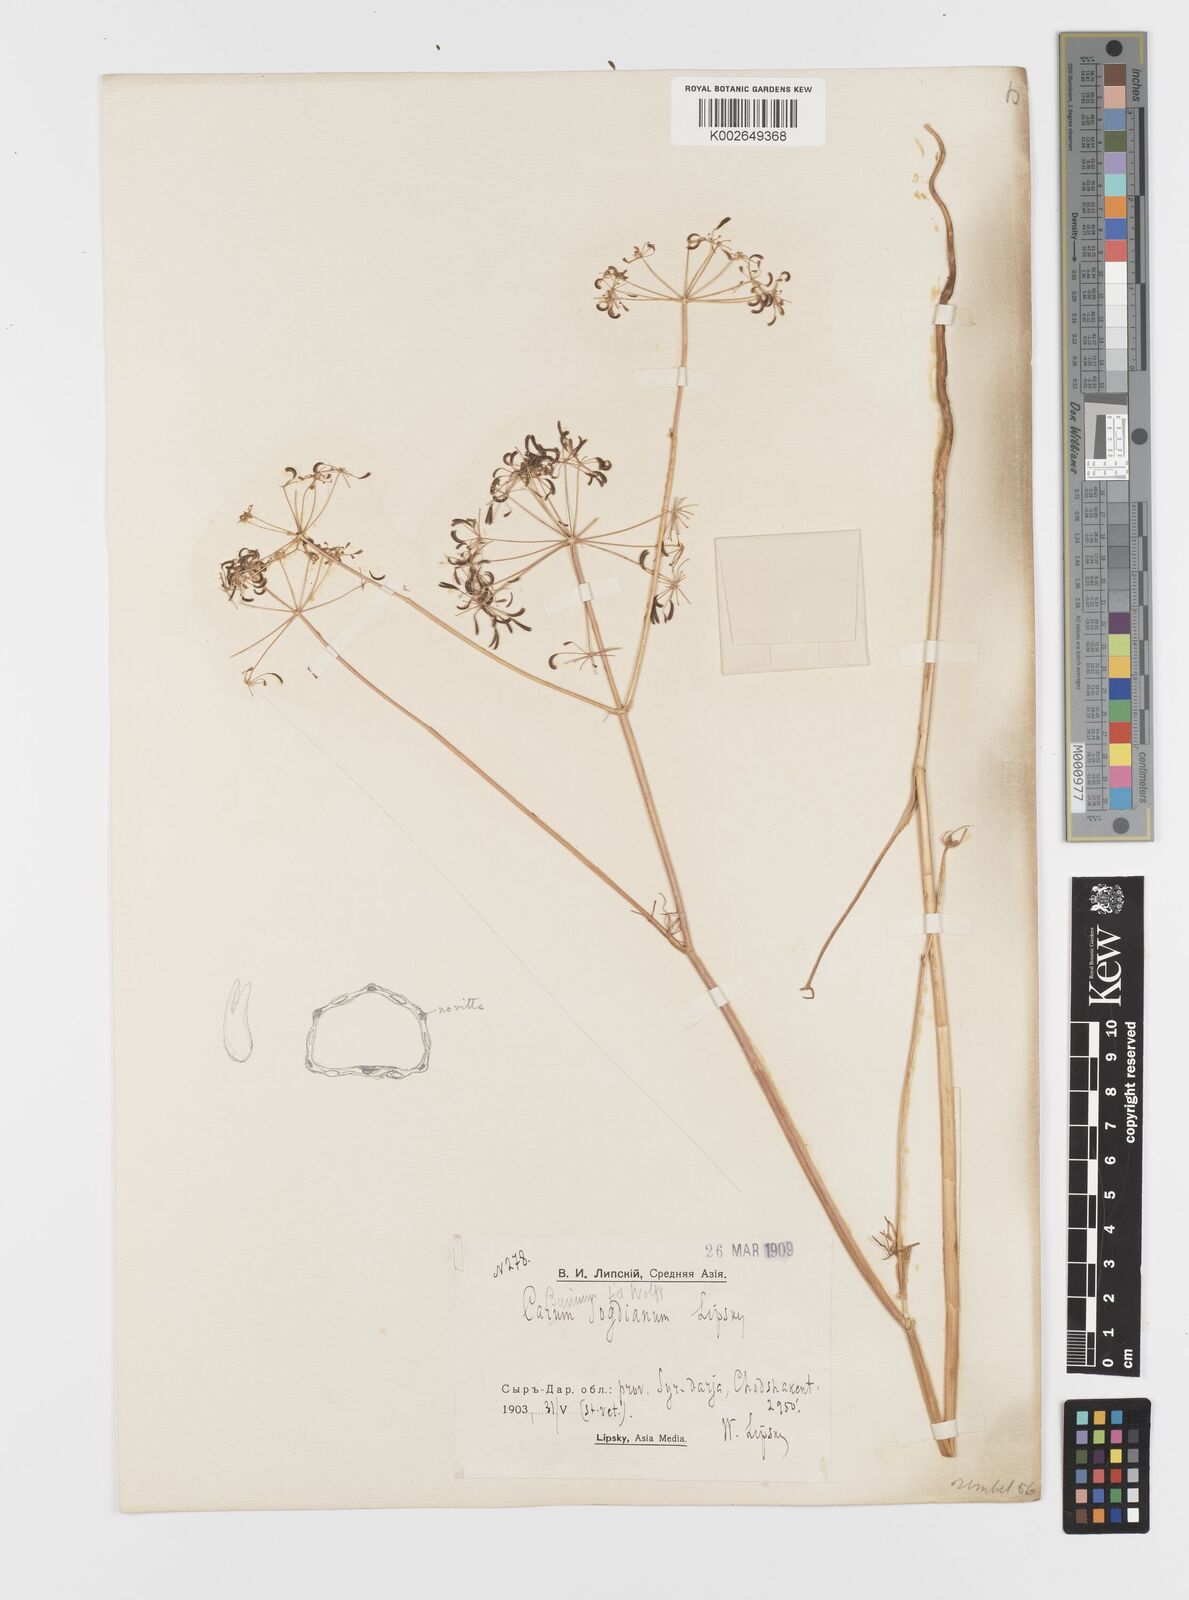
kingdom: Plantae
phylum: Tracheophyta
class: Magnoliopsida
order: Apiales
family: Apiaceae
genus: Elwendia
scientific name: Elwendia chaerophylloides
